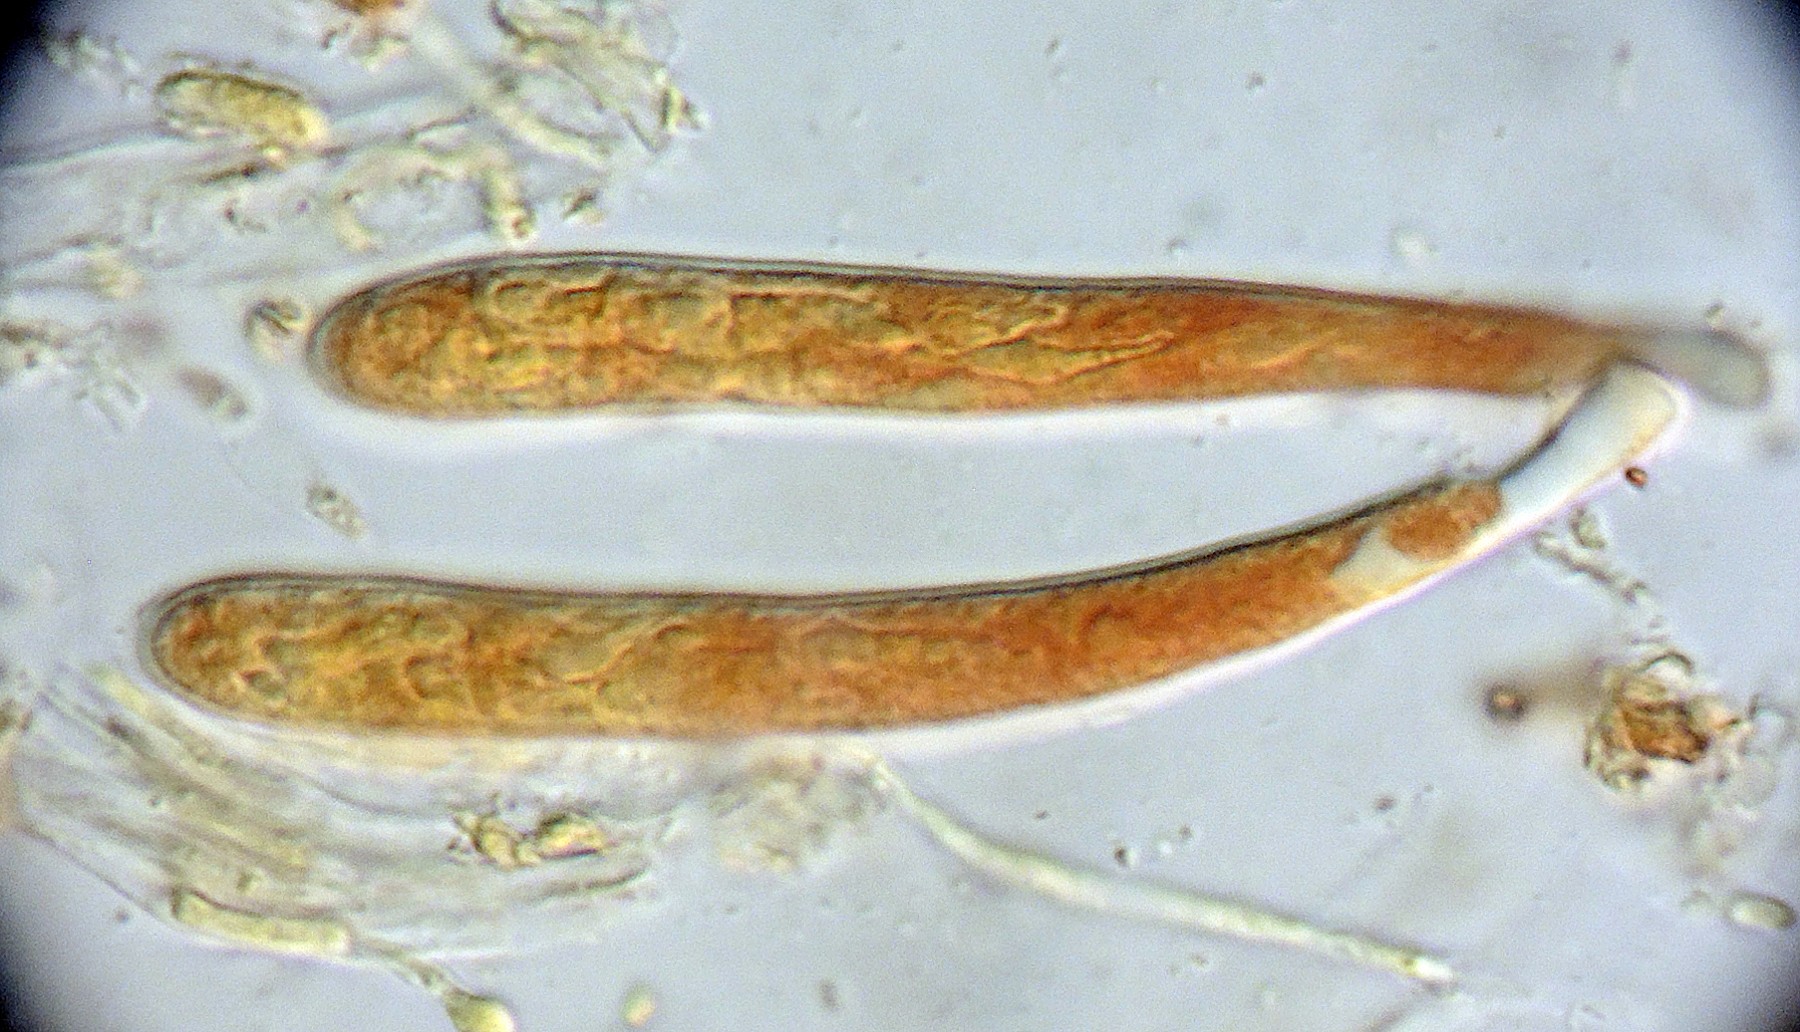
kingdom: Fungi
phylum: Ascomycota
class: Leotiomycetes
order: Helotiales
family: Pezizellaceae
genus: Pezizella
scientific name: Pezizella
